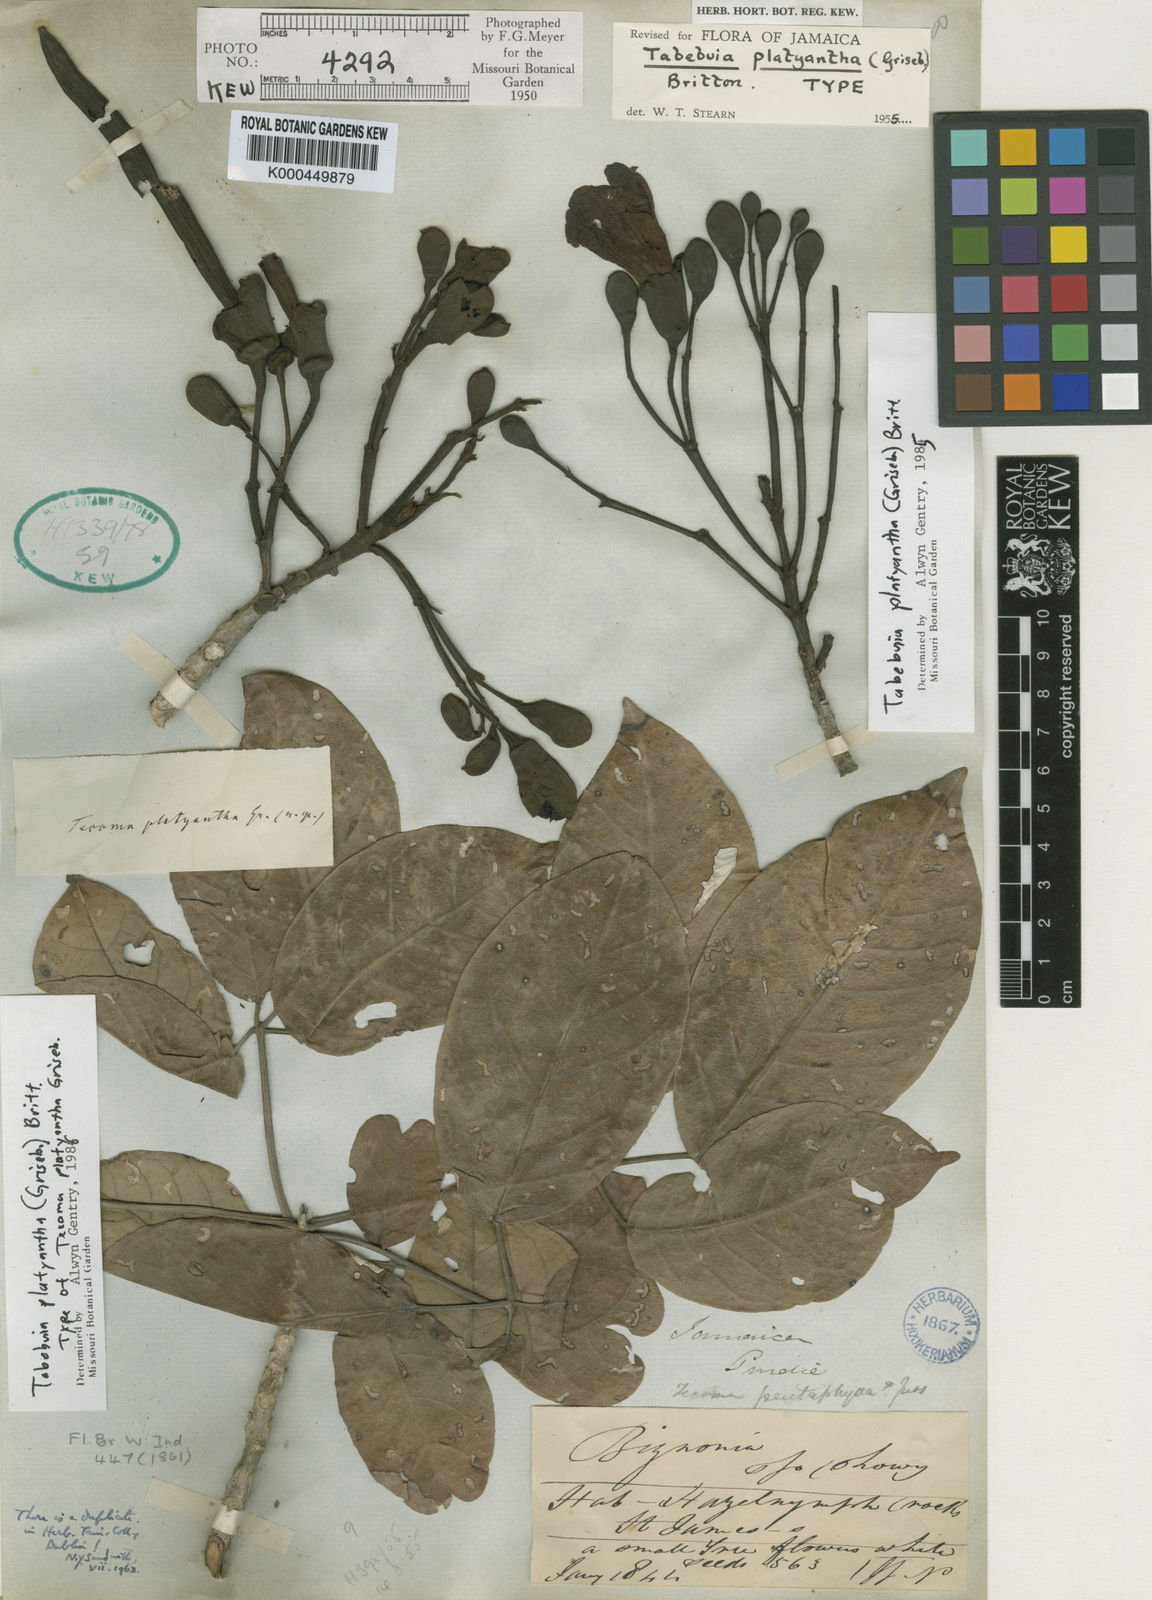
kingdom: Plantae
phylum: Tracheophyta
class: Magnoliopsida
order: Lamiales
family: Bignoniaceae
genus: Tabebuia
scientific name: Tabebuia platyantha
